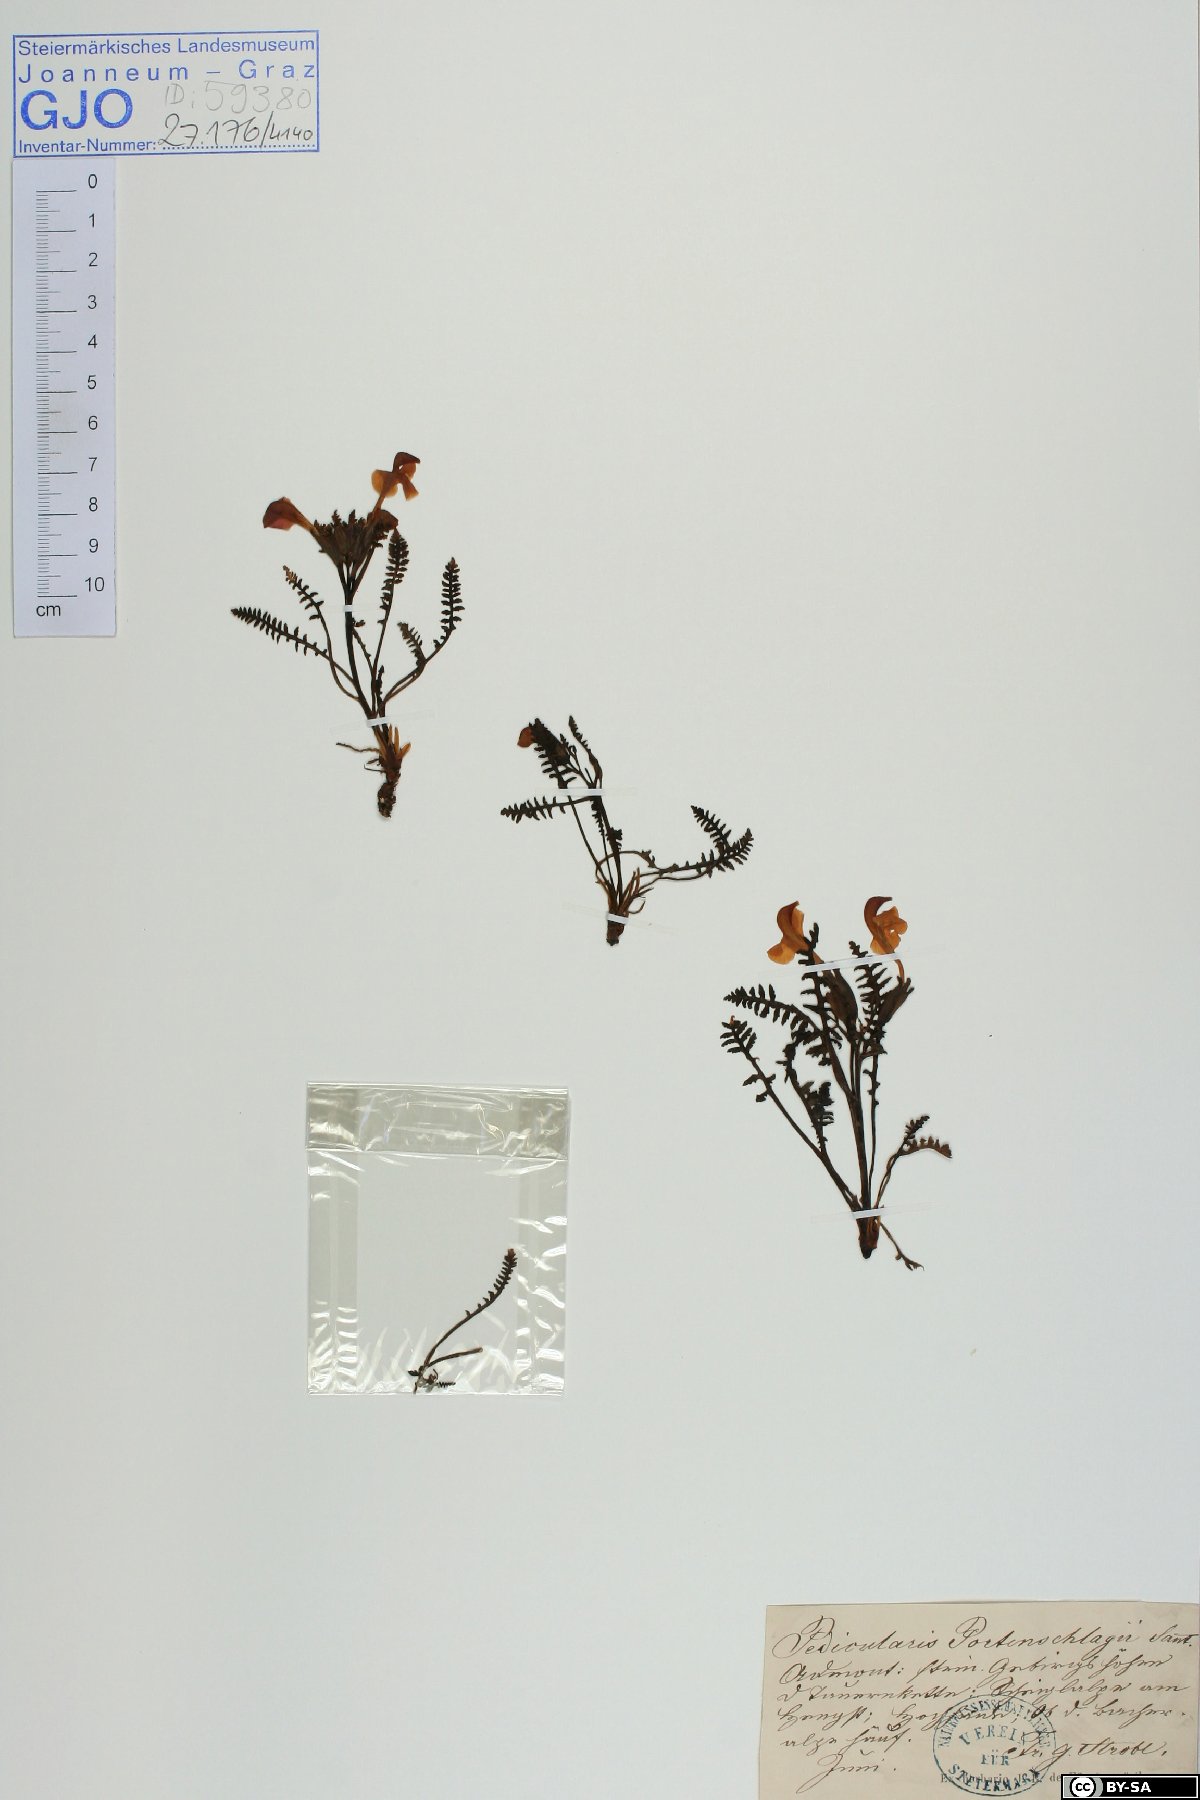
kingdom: Plantae
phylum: Tracheophyta
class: Magnoliopsida
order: Lamiales
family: Orobanchaceae
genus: Pedicularis
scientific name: Pedicularis portenschlagii
